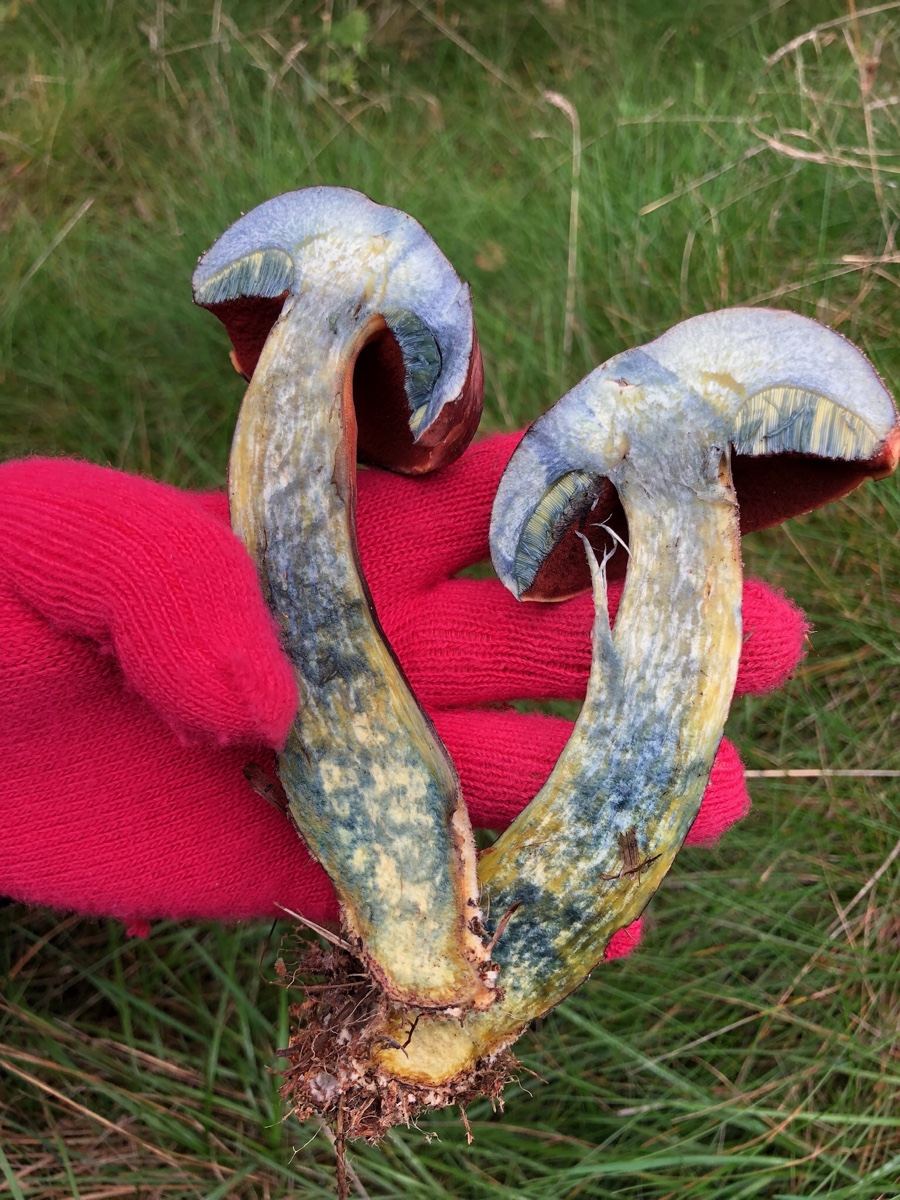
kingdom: Fungi
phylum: Basidiomycota
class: Agaricomycetes
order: Boletales
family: Boletaceae
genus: Neoboletus
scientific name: Neoboletus erythropus
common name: punktstokket indigorørhat
